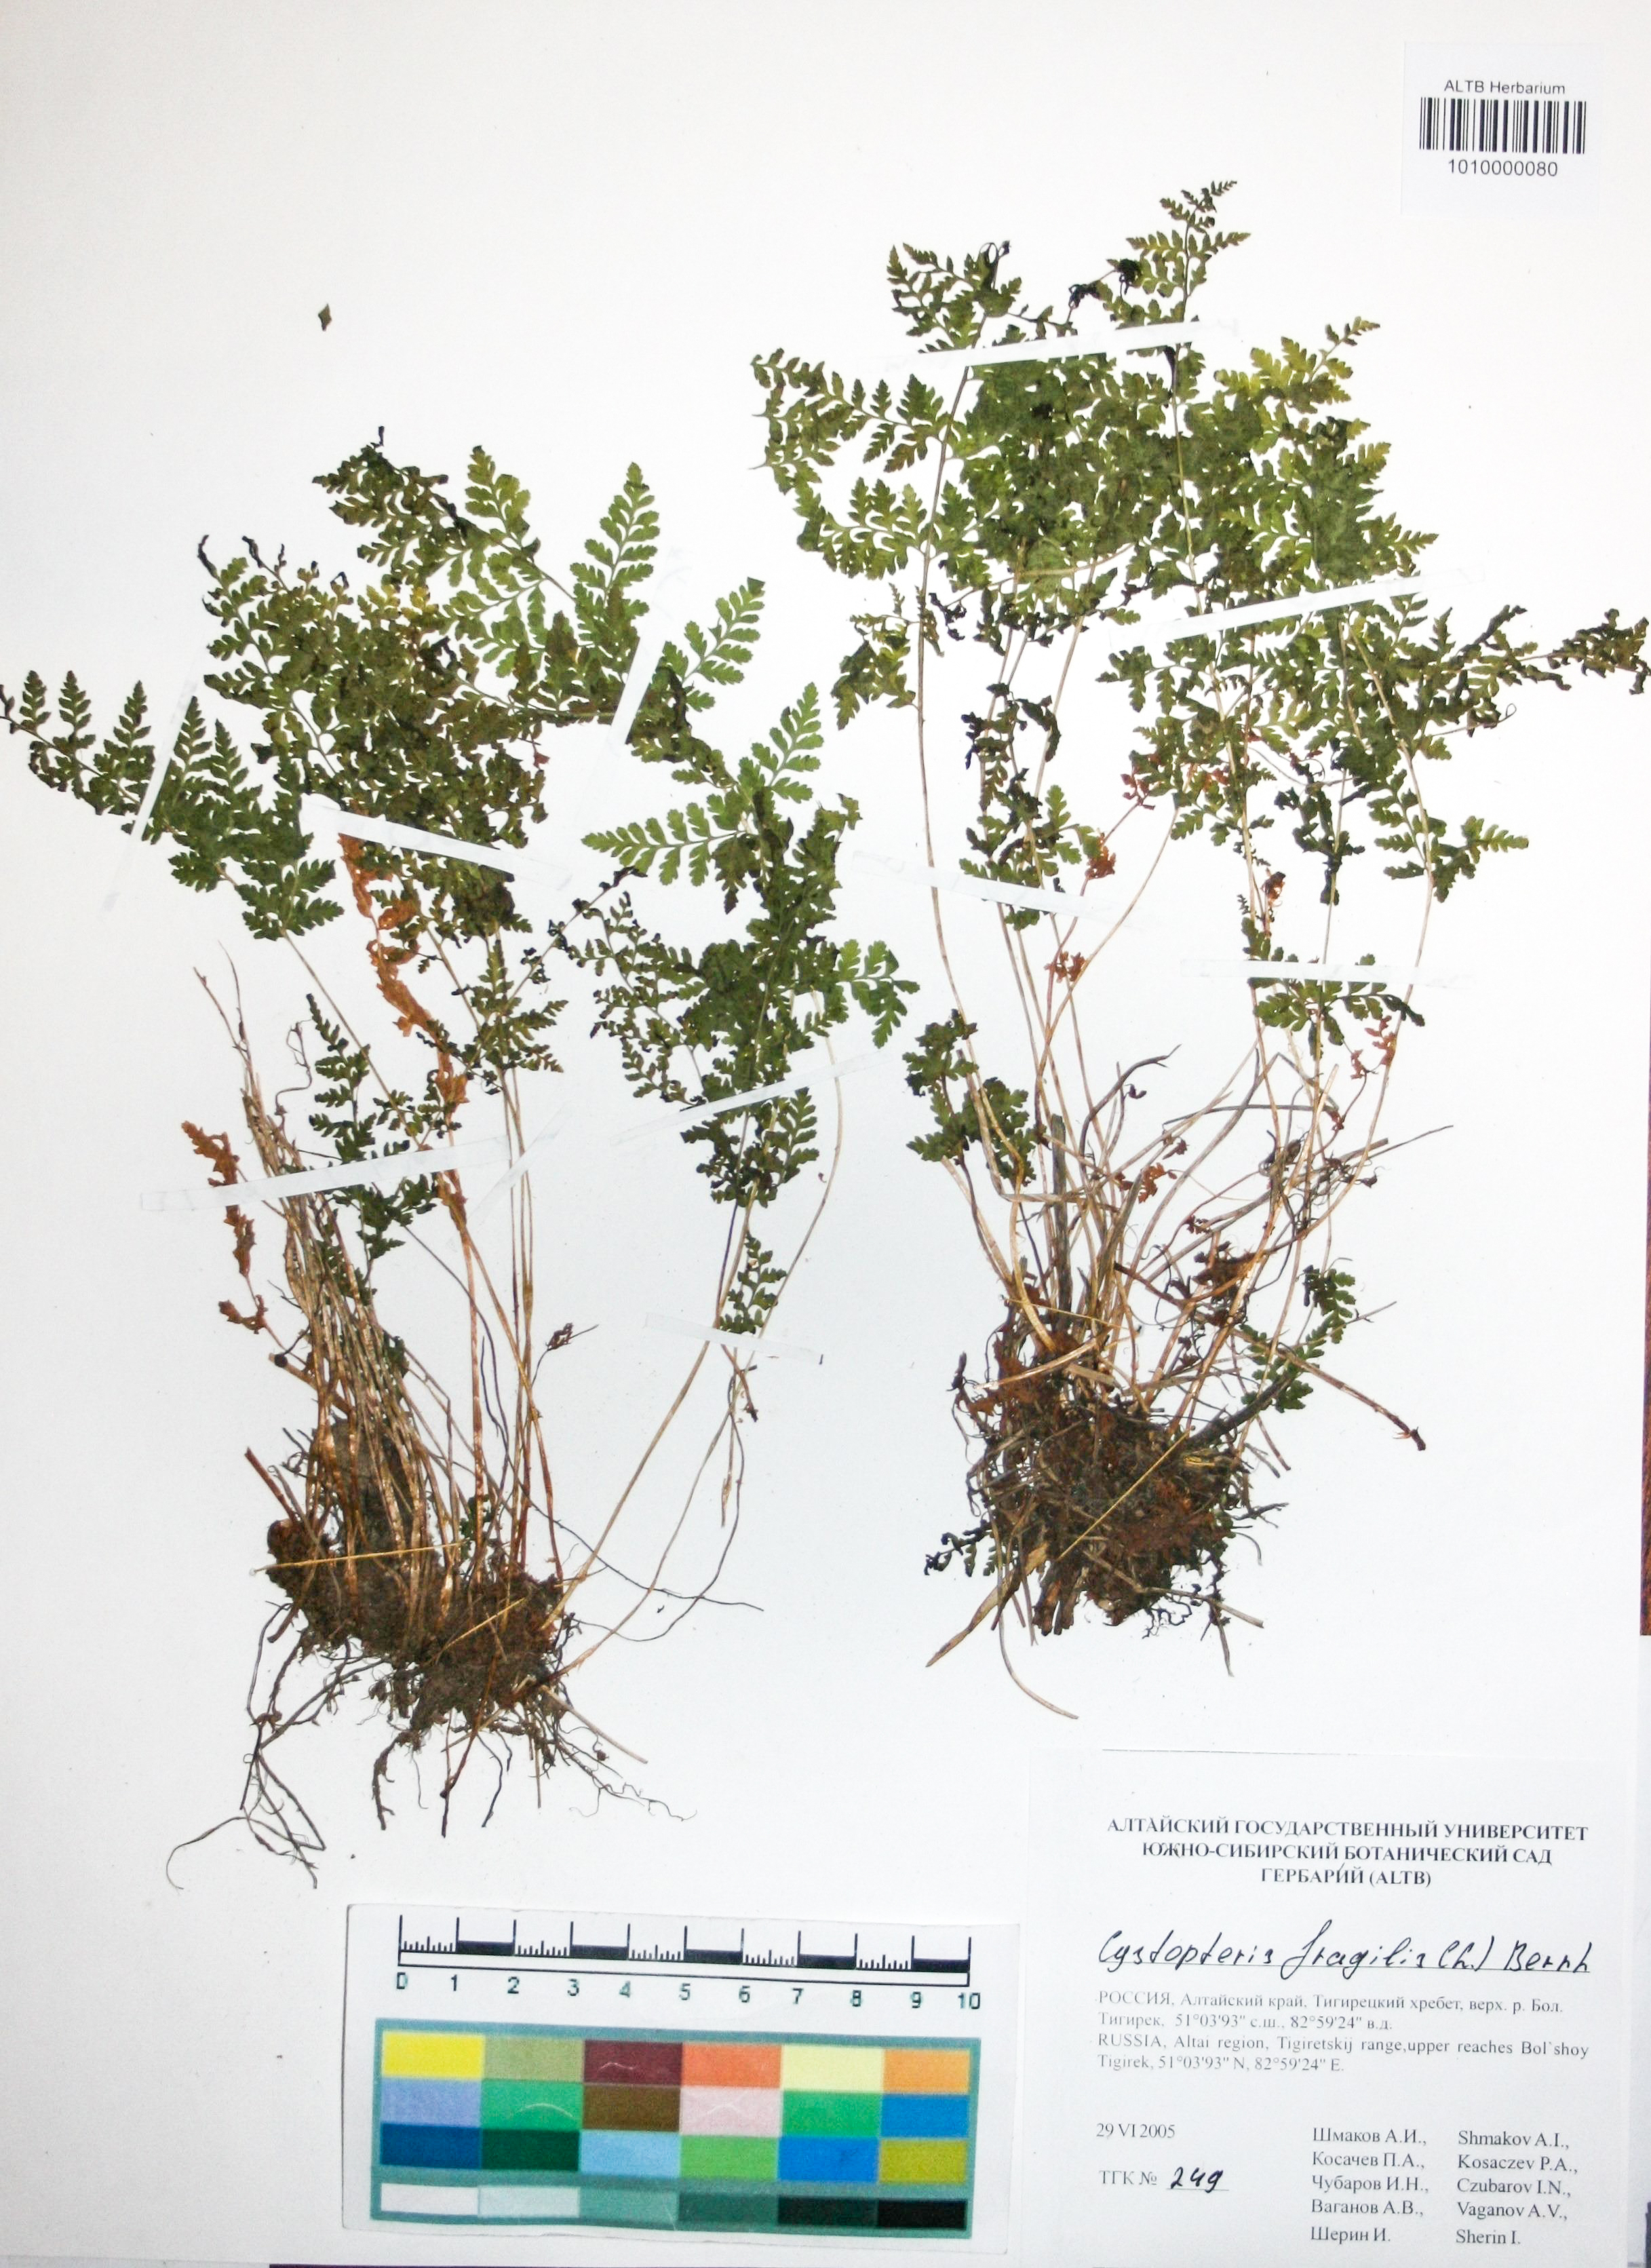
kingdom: Plantae
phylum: Tracheophyta
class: Polypodiopsida
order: Polypodiales
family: Cystopteridaceae
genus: Cystopteris
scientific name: Cystopteris fragilis
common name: Brittle bladder fern
